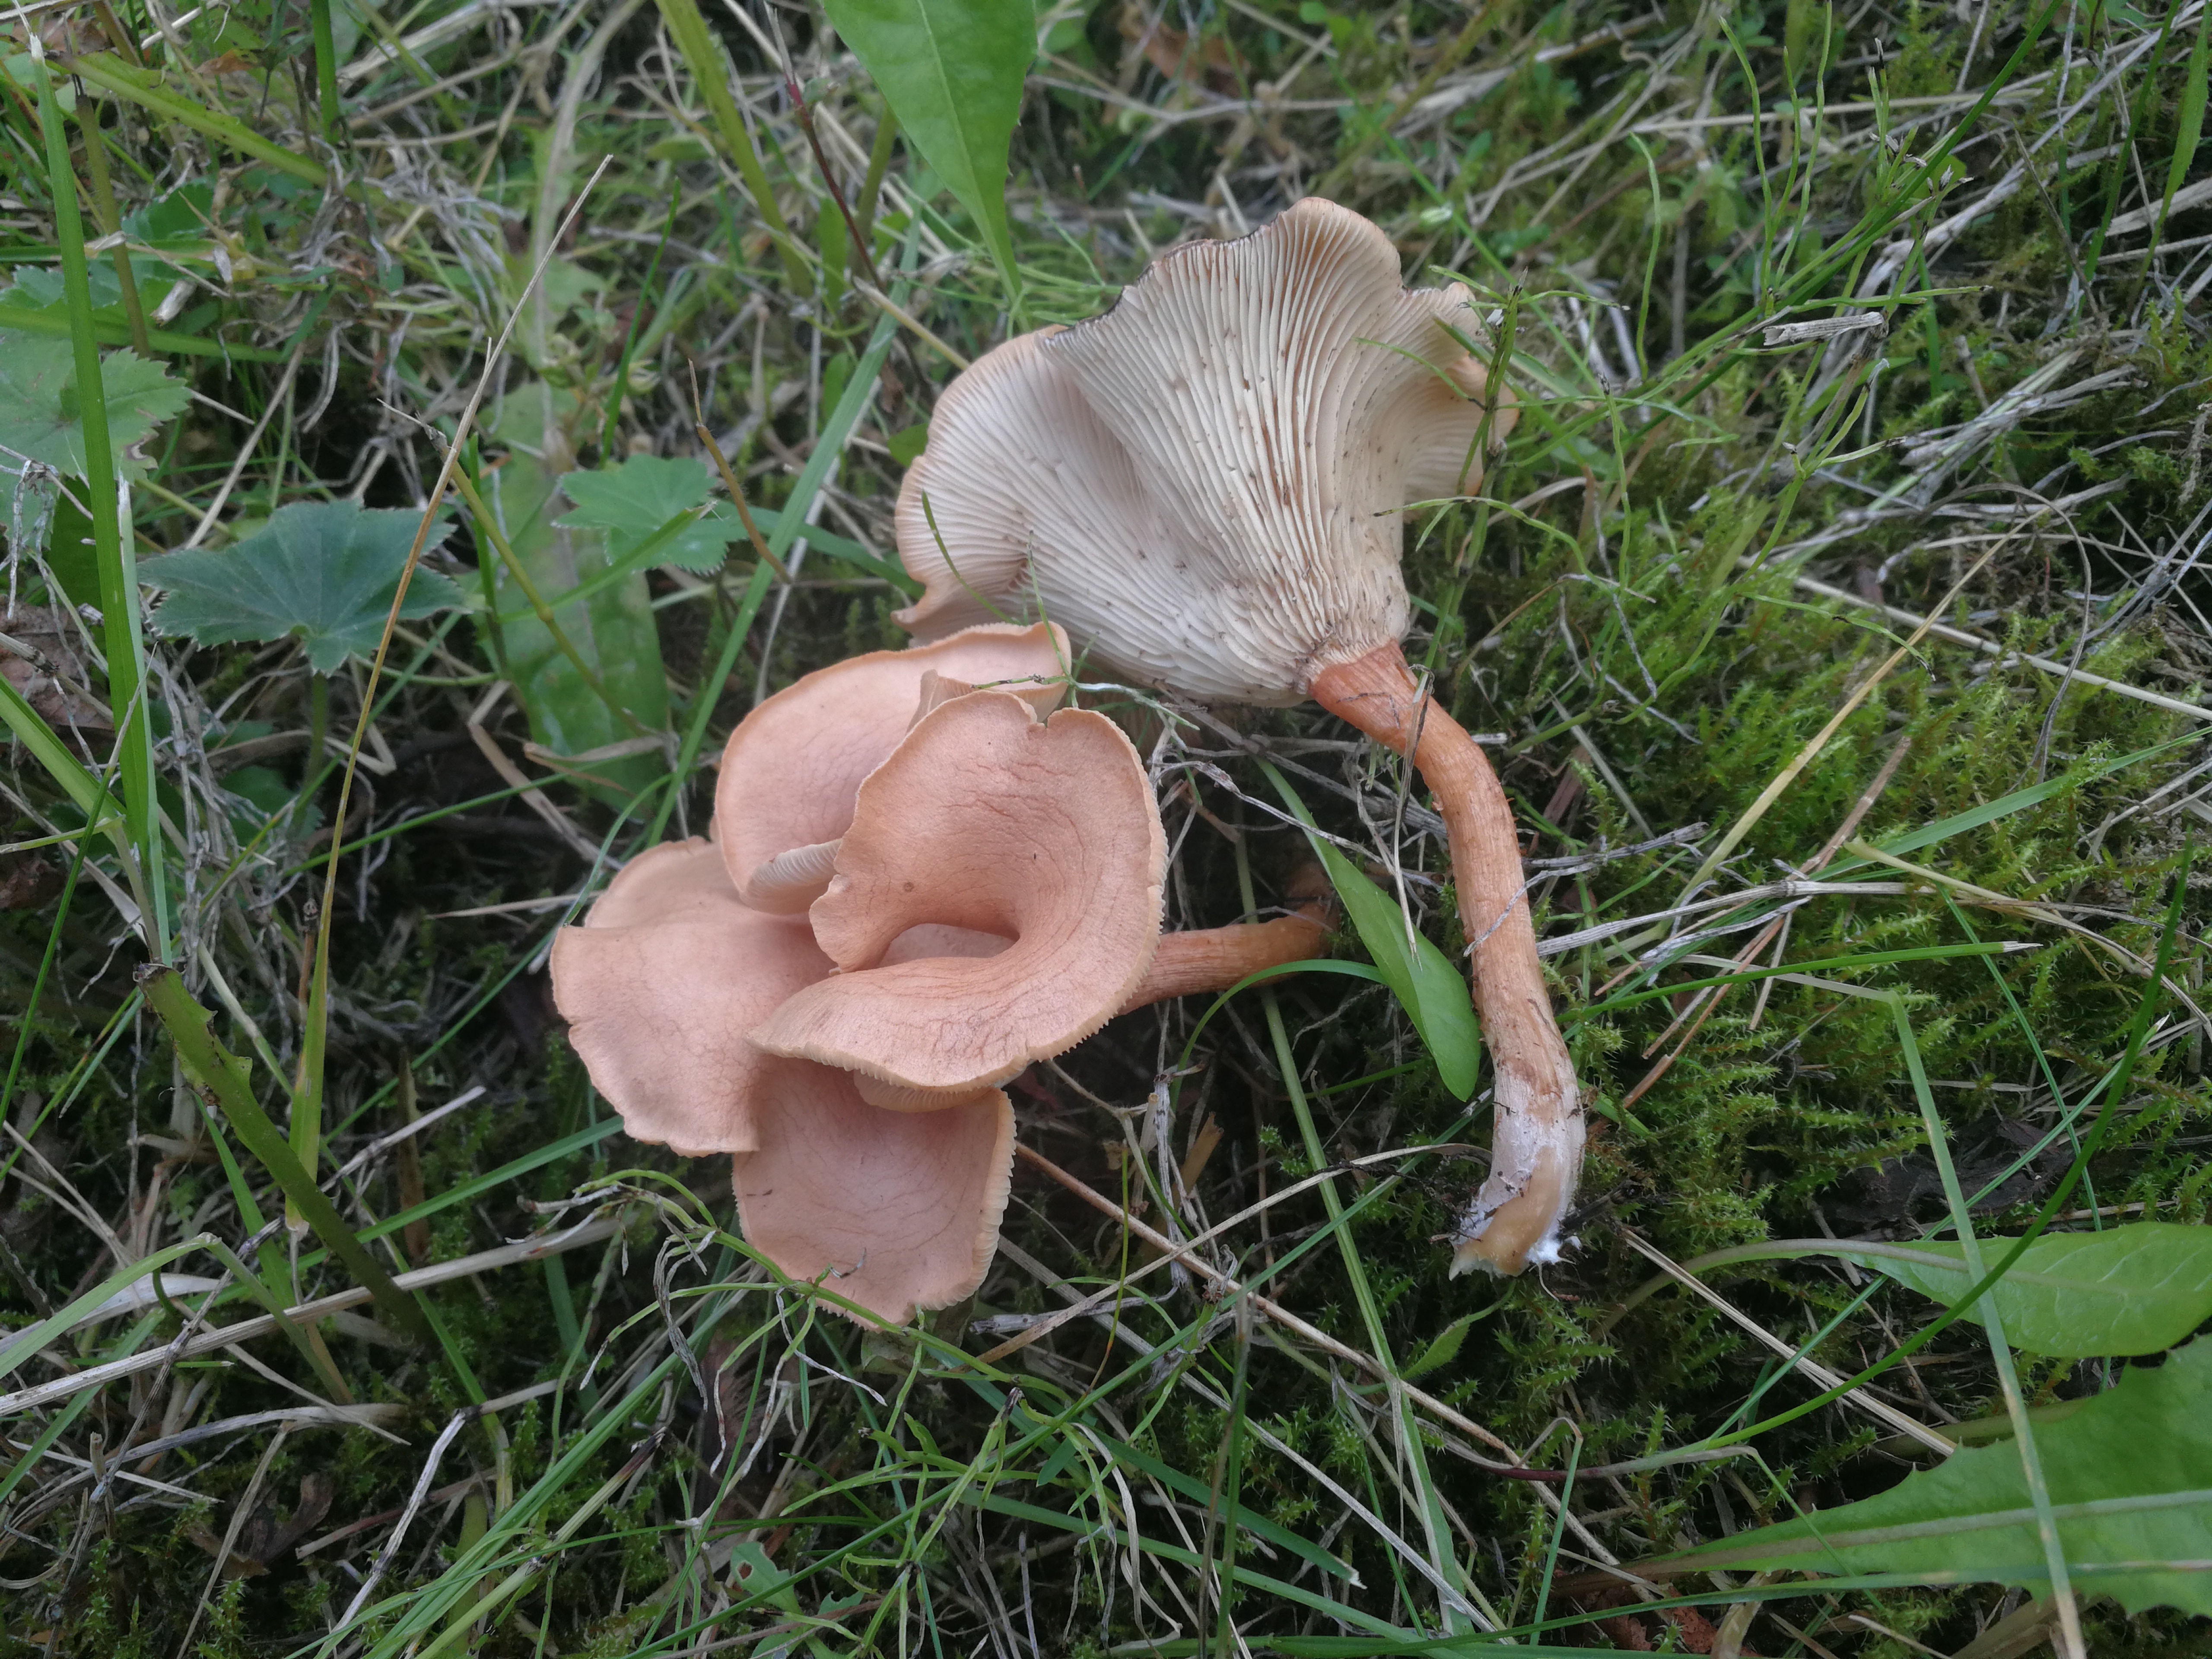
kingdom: Fungi
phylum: Basidiomycota
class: Agaricomycetes
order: Agaricales
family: Pseudoclitocybaceae
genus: Bonomyces
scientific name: Bonomyces sinopicus
